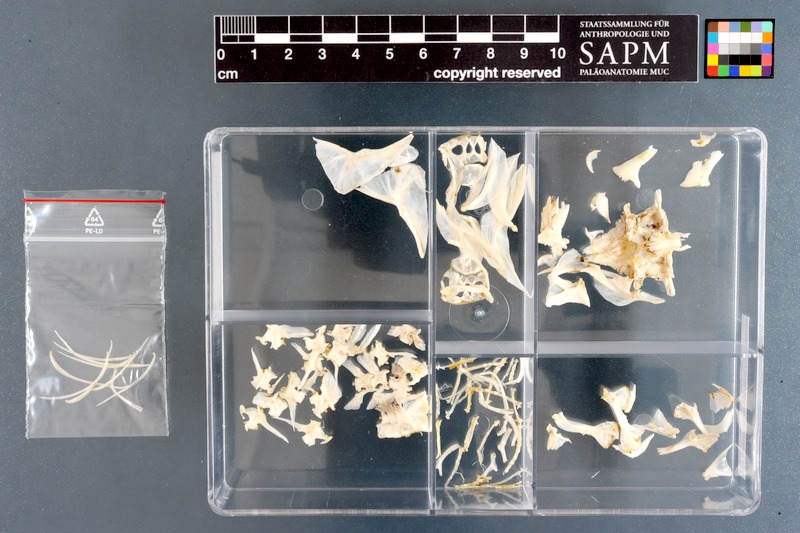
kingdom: Animalia
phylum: Chordata
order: Tetraodontiformes
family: Tetraodontidae
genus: Amblyrhynchotes
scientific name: Amblyrhynchotes honckenii
